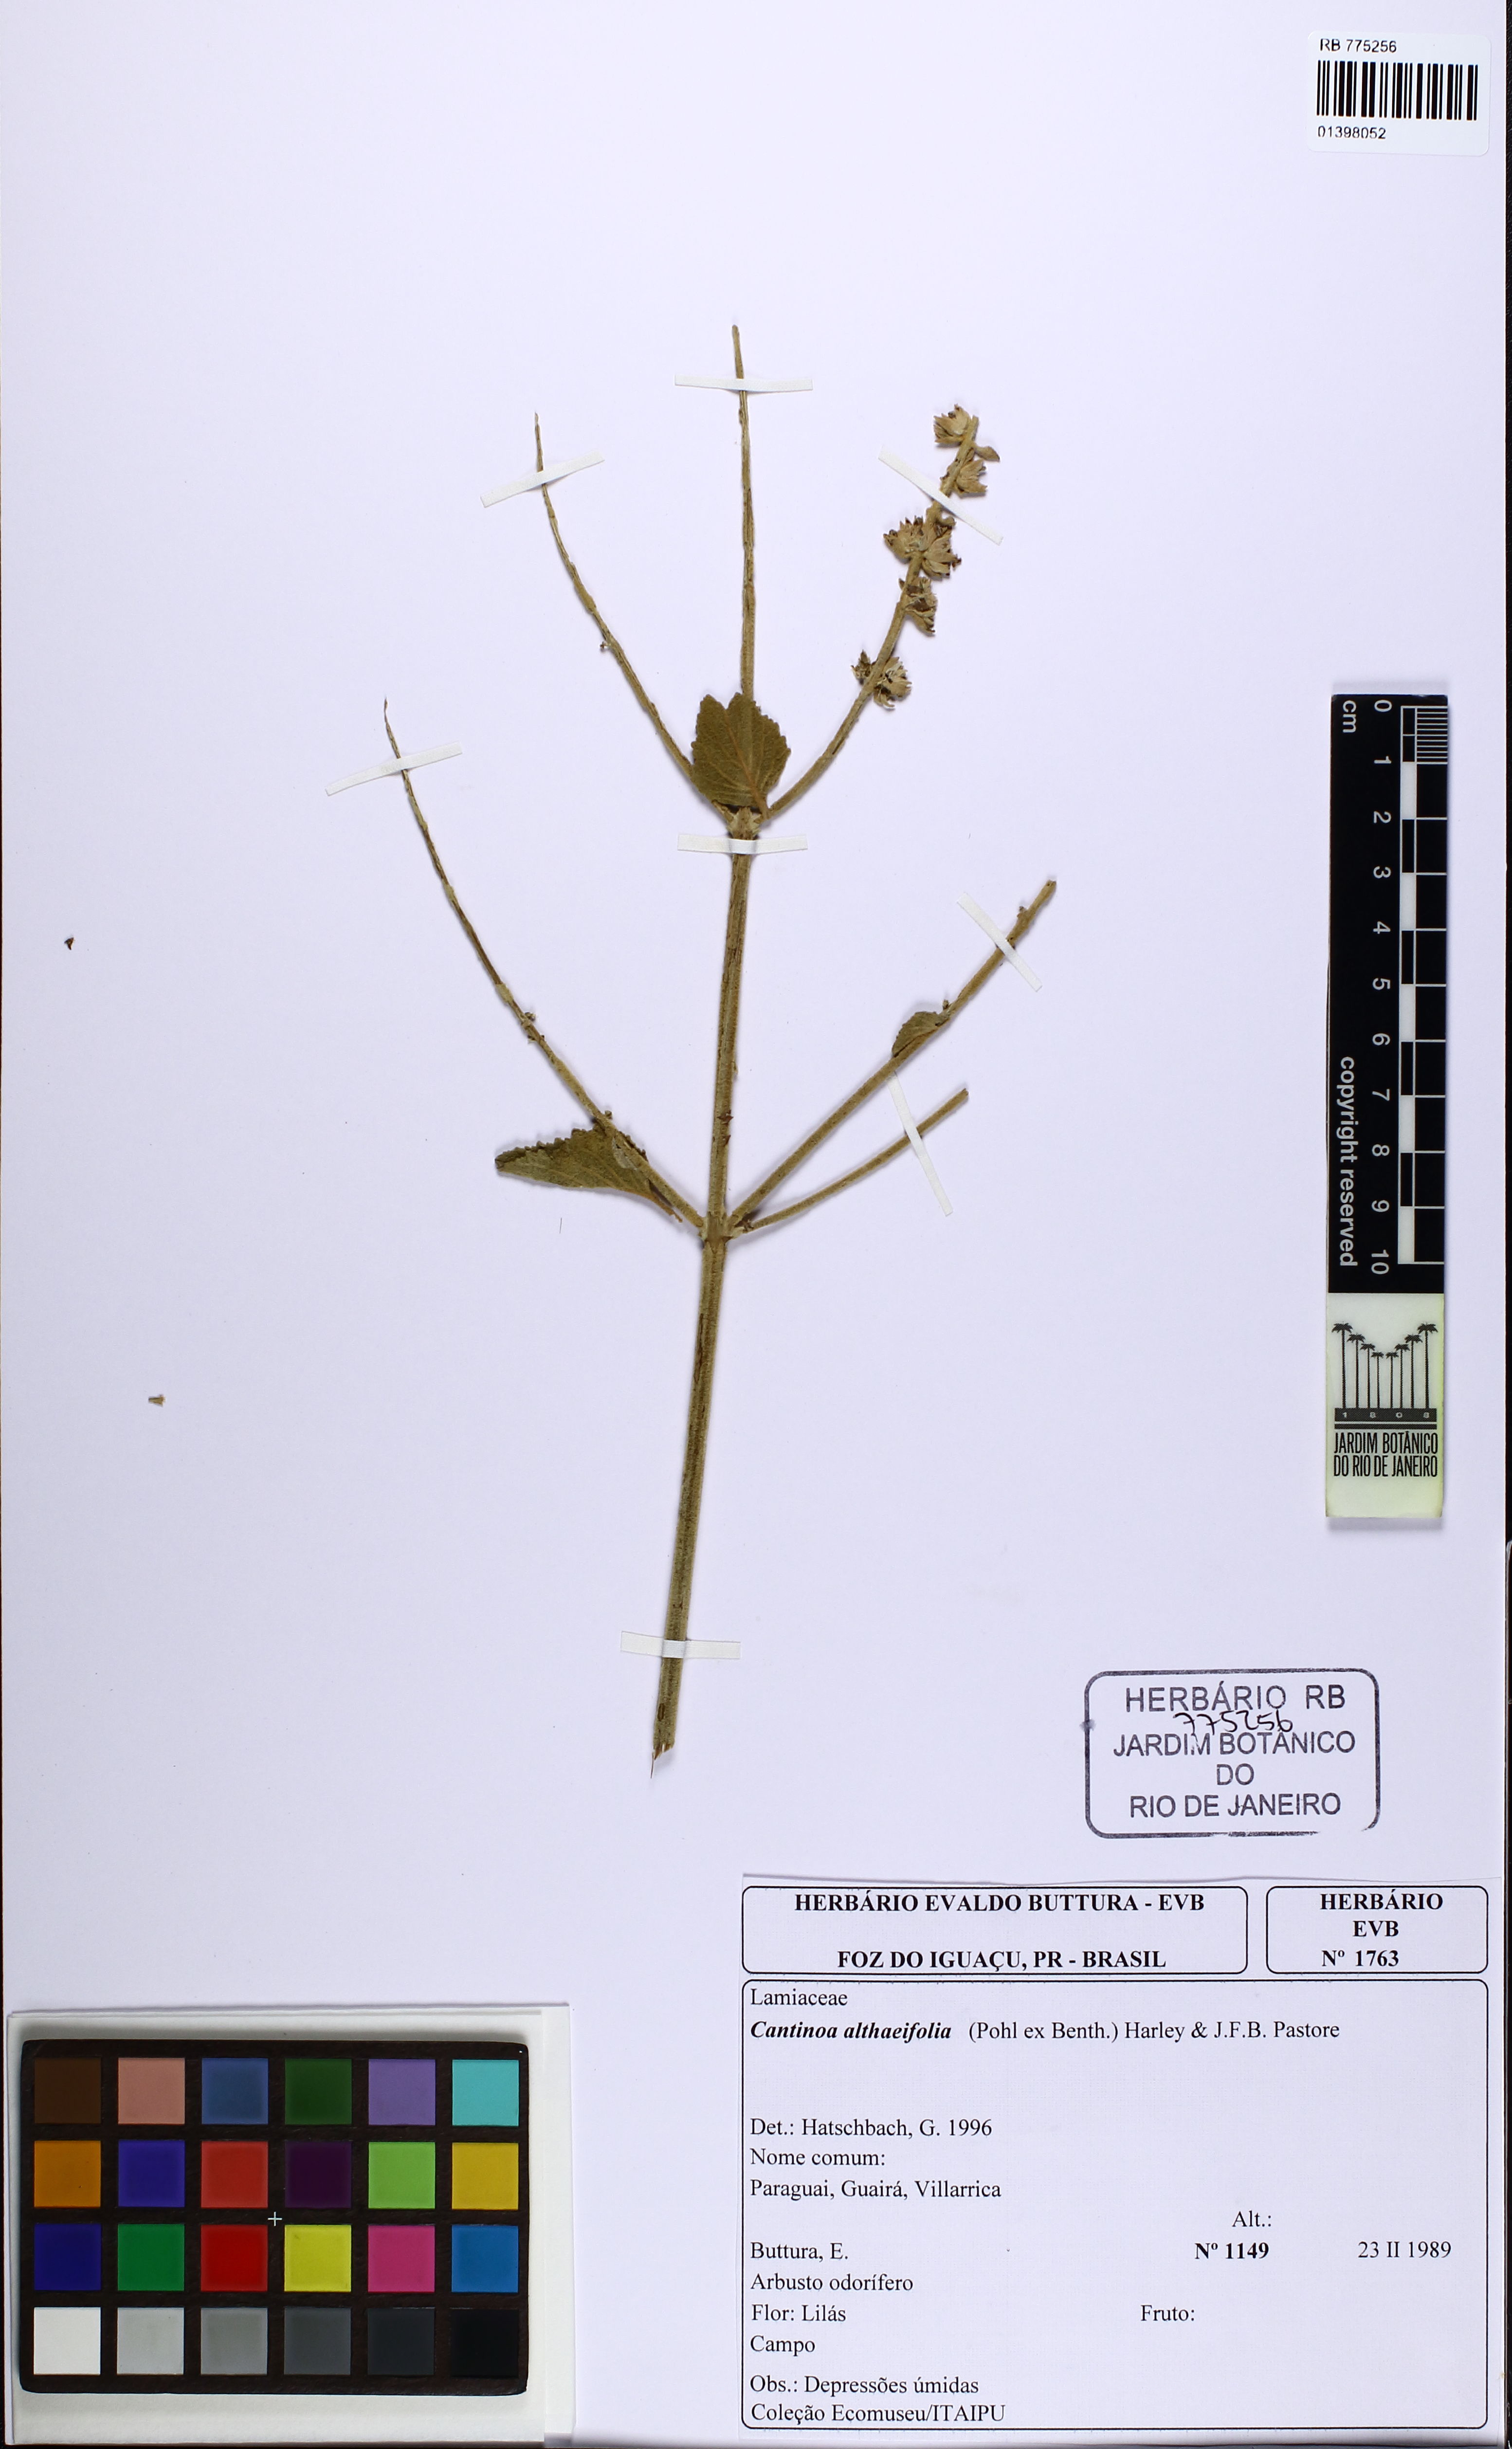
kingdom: Plantae
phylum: Tracheophyta
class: Magnoliopsida
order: Lamiales
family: Lamiaceae
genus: Cantinoa
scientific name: Cantinoa althaeifolia
